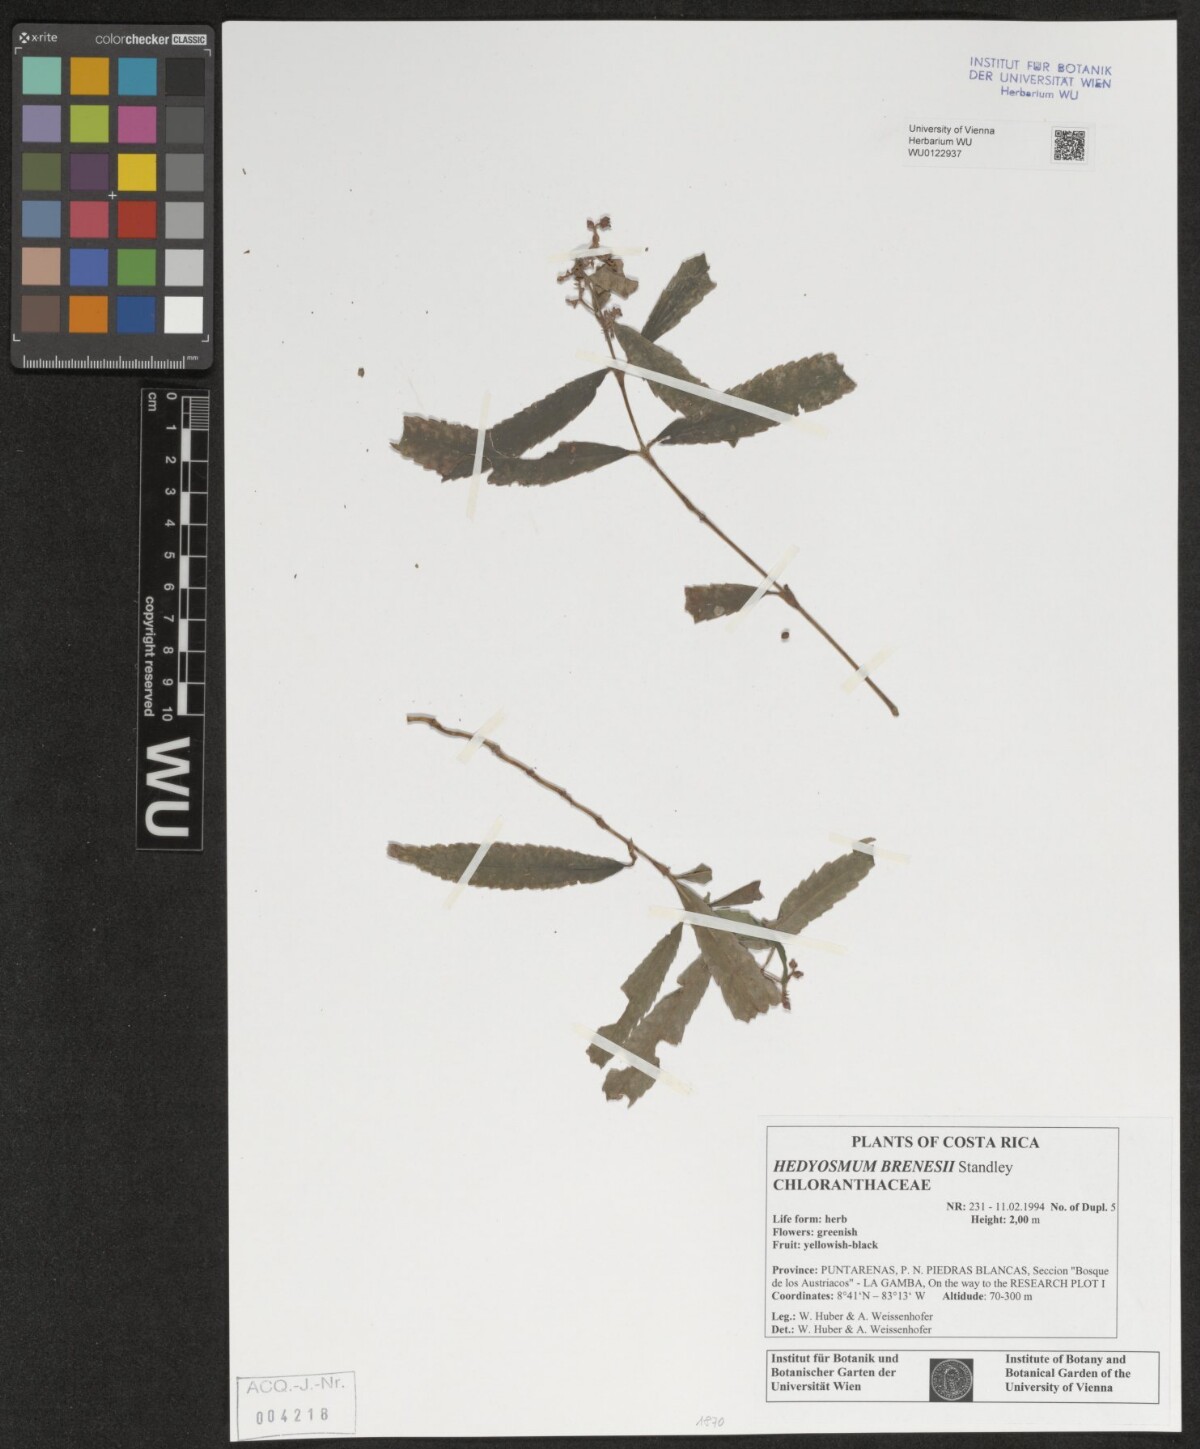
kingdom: Plantae
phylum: Tracheophyta
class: Magnoliopsida
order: Chloranthales
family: Chloranthaceae
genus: Hedyosmum
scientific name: Hedyosmum brenesii
